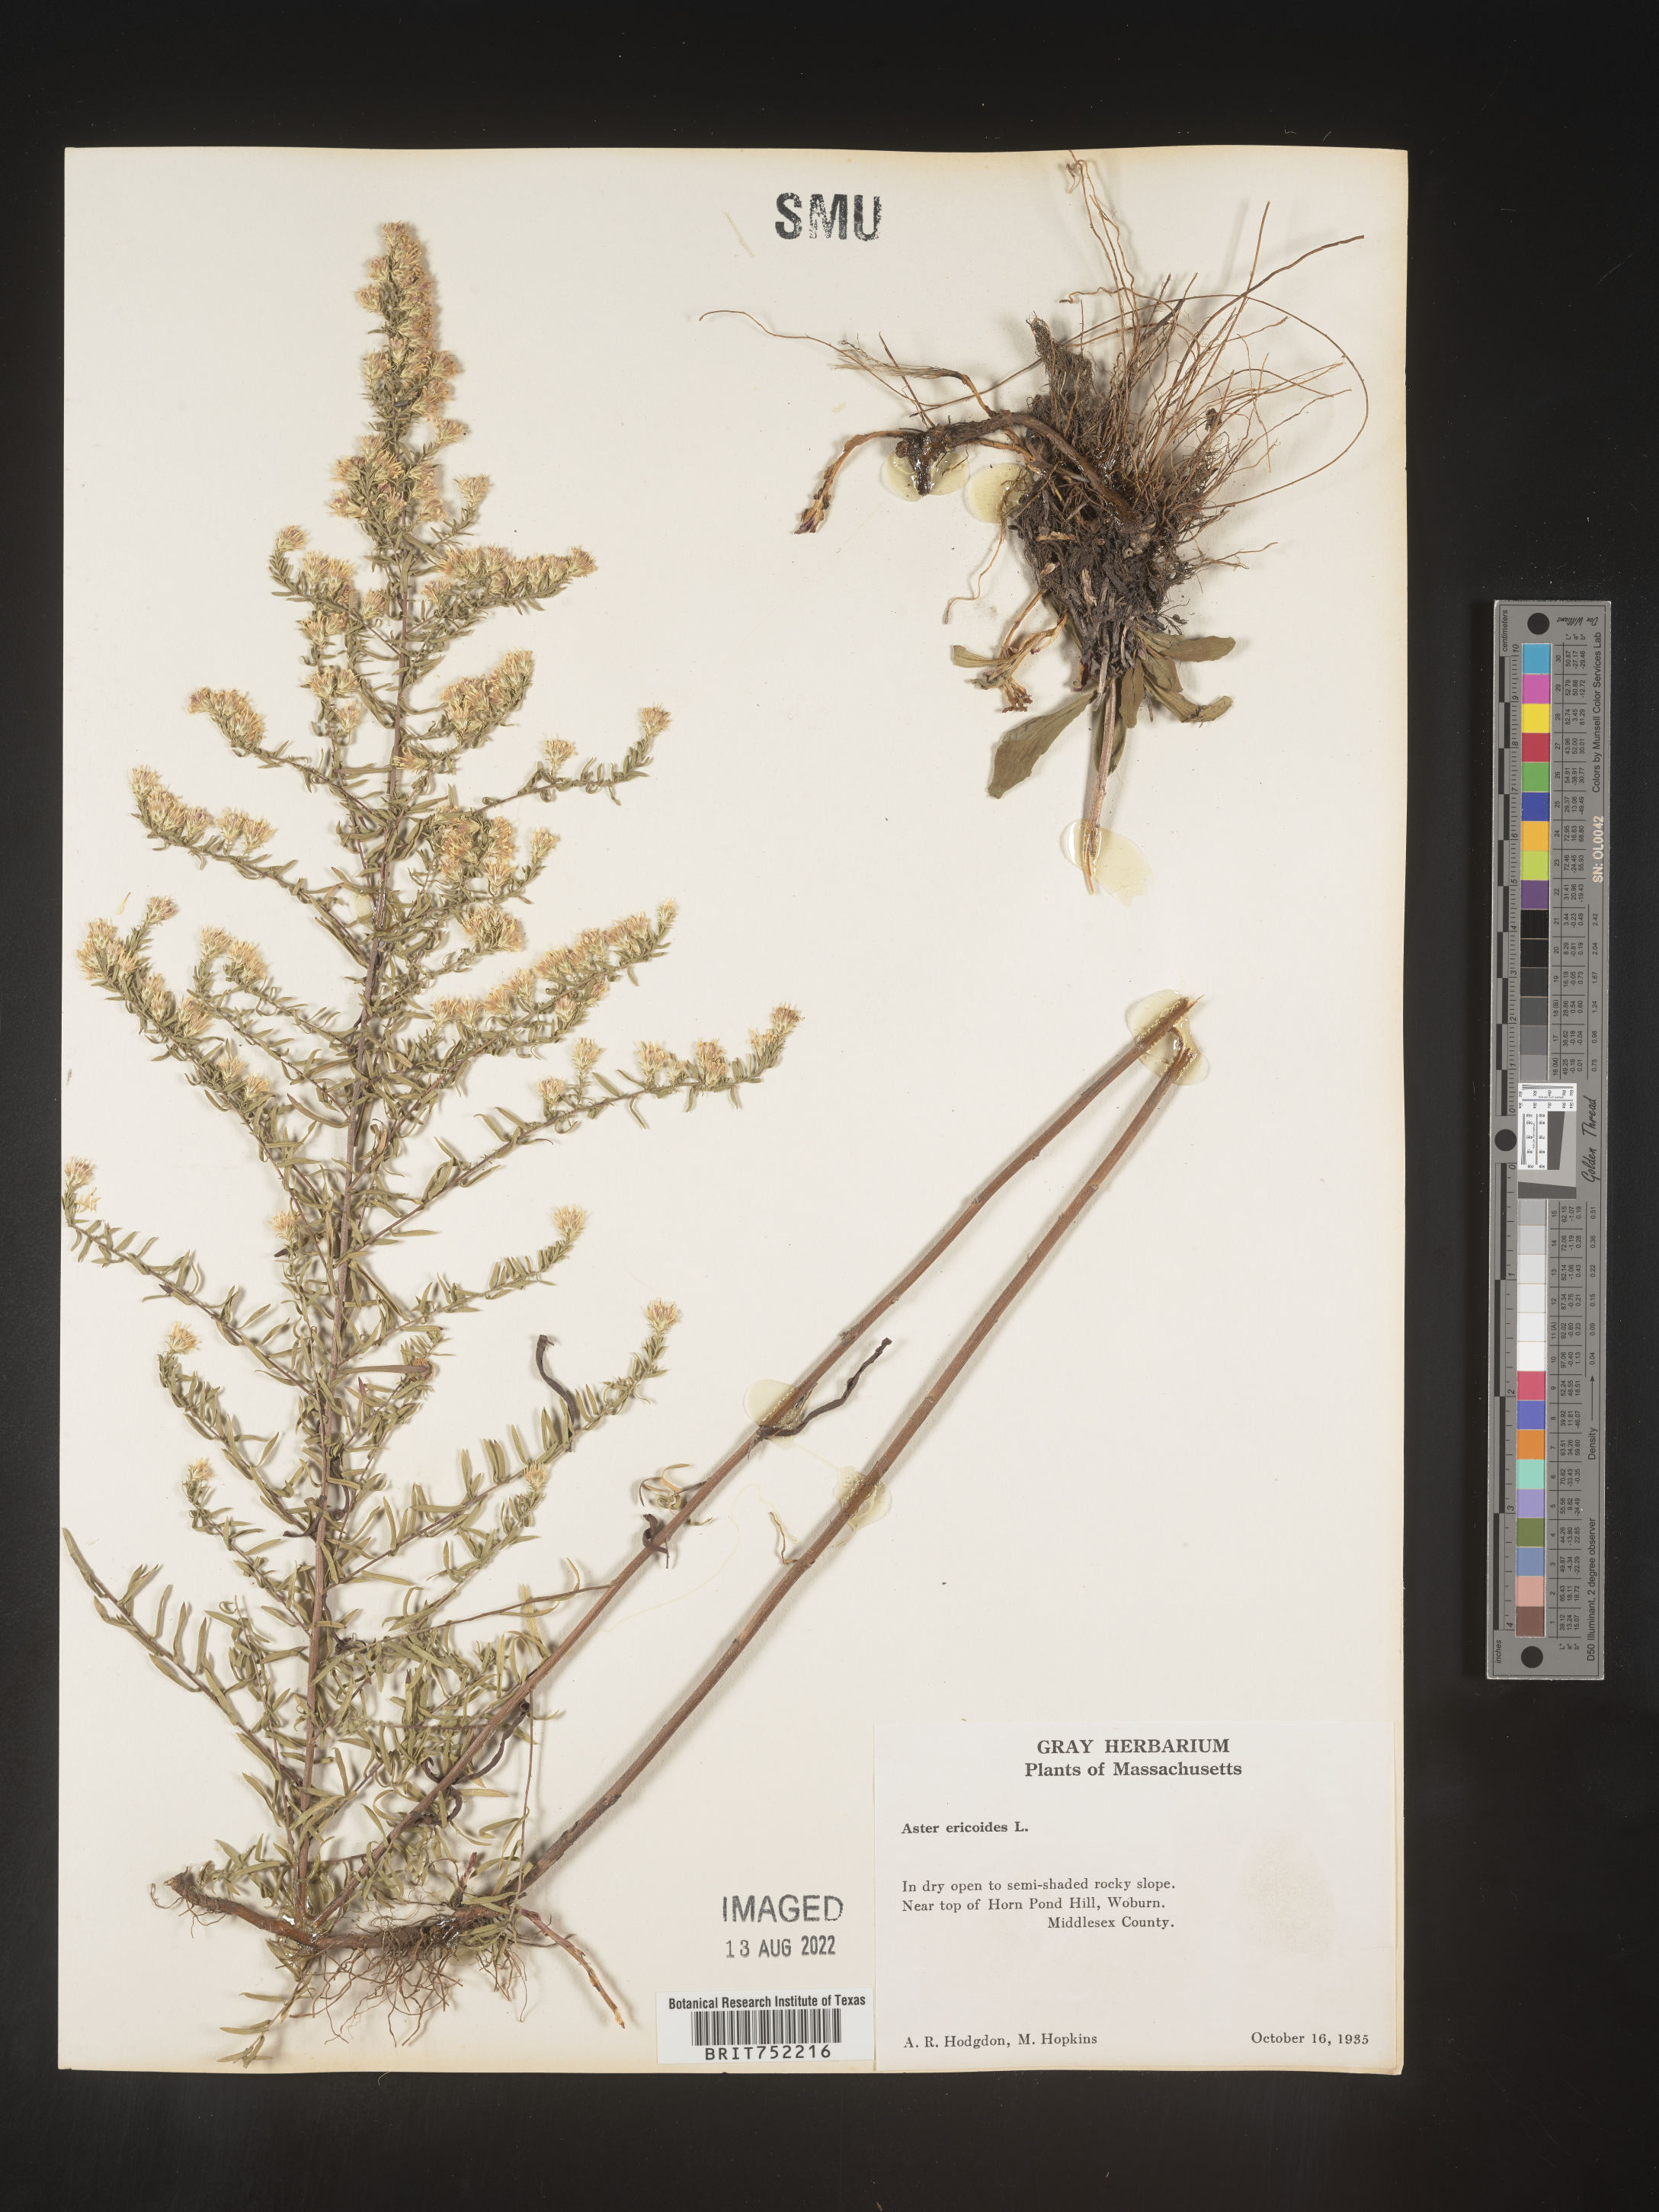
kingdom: Plantae
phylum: Tracheophyta
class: Magnoliopsida
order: Asterales
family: Asteraceae
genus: Symphyotrichum
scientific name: Symphyotrichum ericoides
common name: Heath aster
